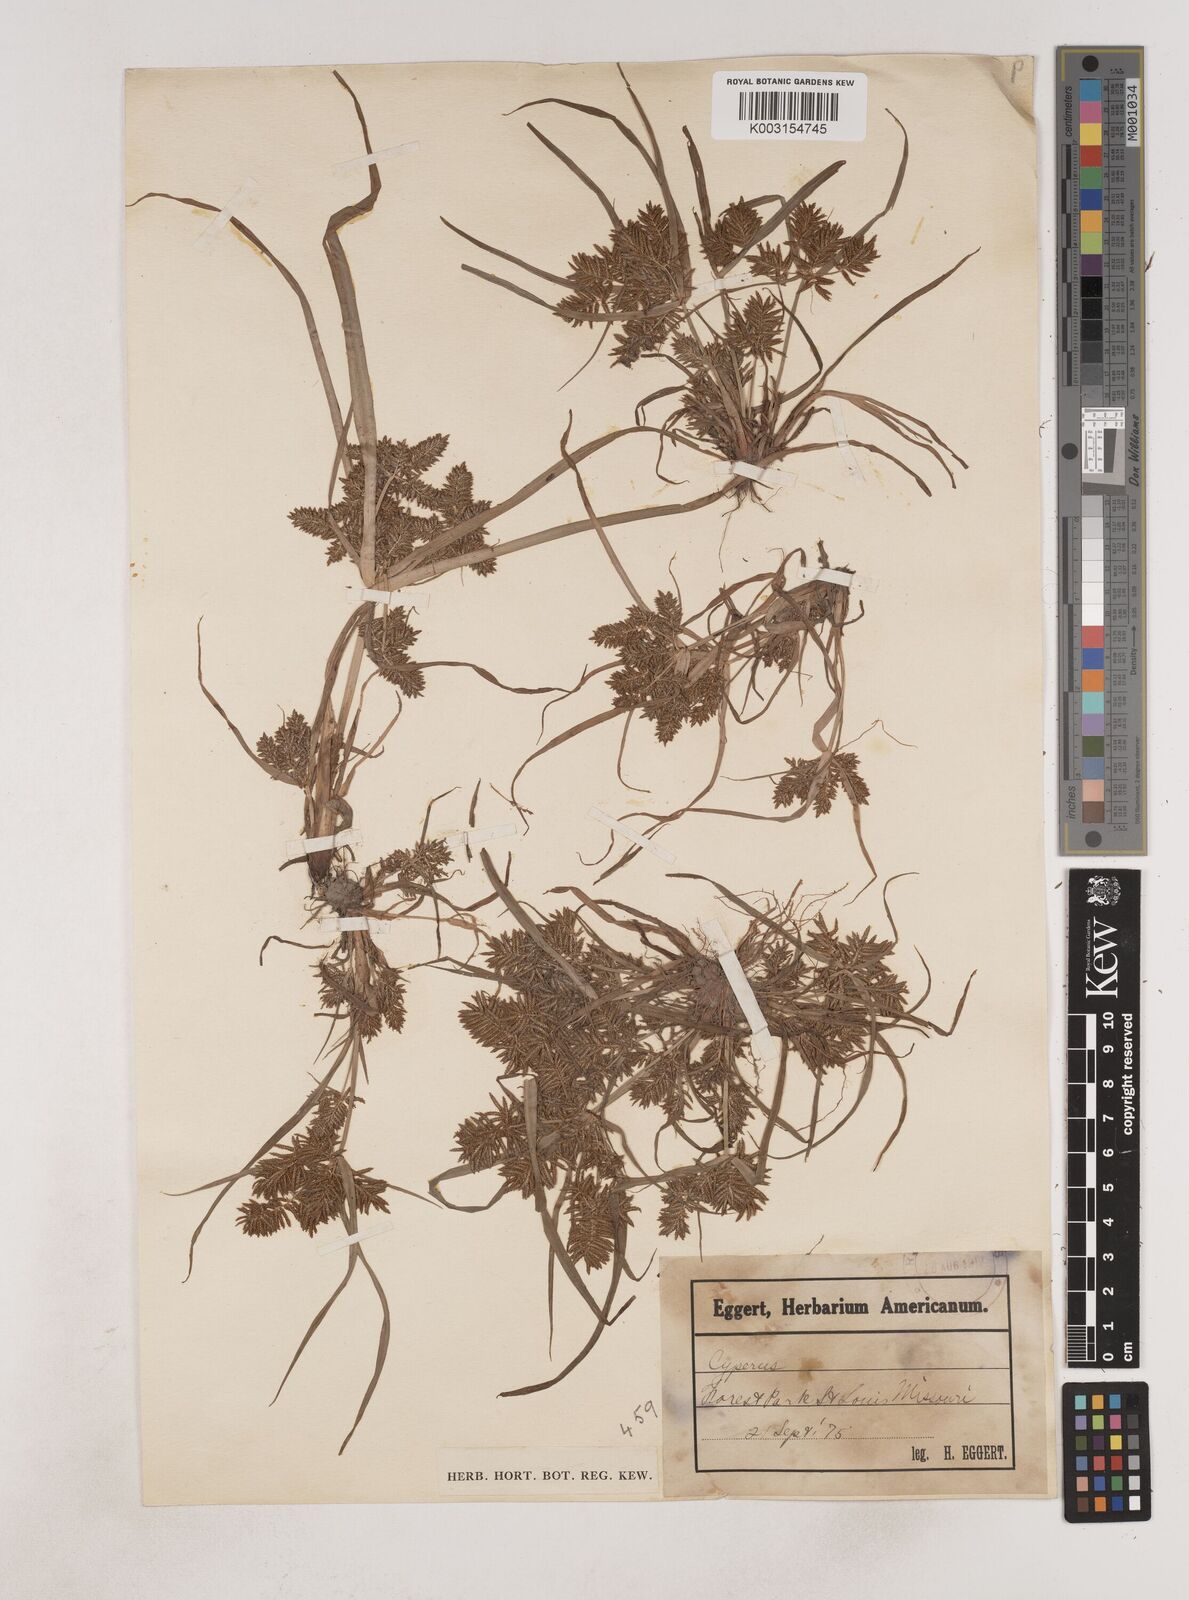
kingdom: Plantae
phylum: Tracheophyta
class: Liliopsida
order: Poales
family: Cyperaceae
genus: Cyperus
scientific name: Cyperus erythrorhizos
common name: Red-root flat sedge
